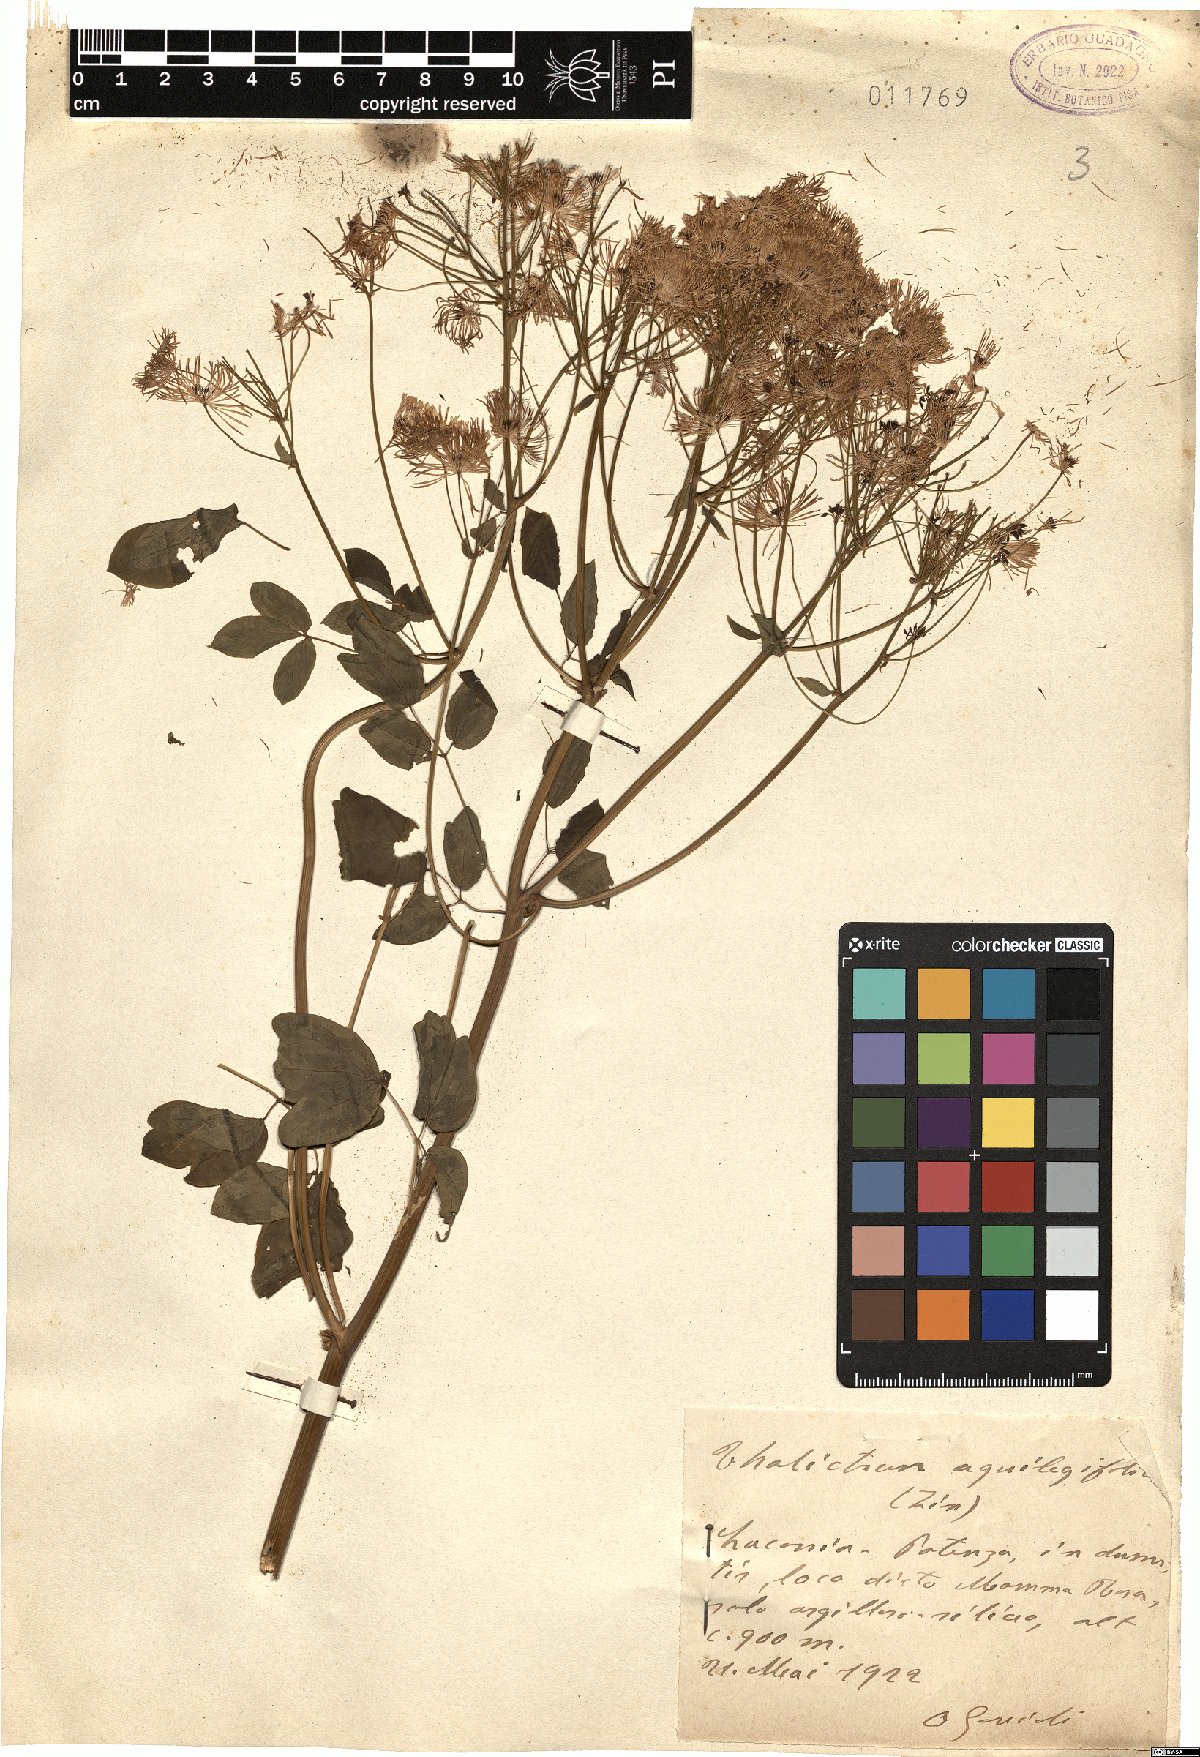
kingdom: Plantae
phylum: Tracheophyta
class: Magnoliopsida
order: Ranunculales
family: Ranunculaceae
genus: Thalictrum
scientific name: Thalictrum aquilegiifolium
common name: French meadow-rue
